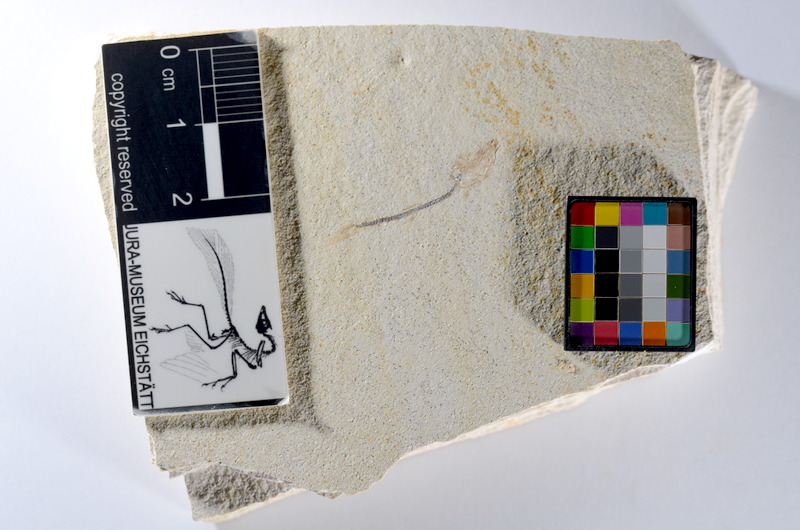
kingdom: Animalia
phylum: Chordata
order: Salmoniformes
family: Orthogonikleithridae
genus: Orthogonikleithrus
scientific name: Orthogonikleithrus hoelli
